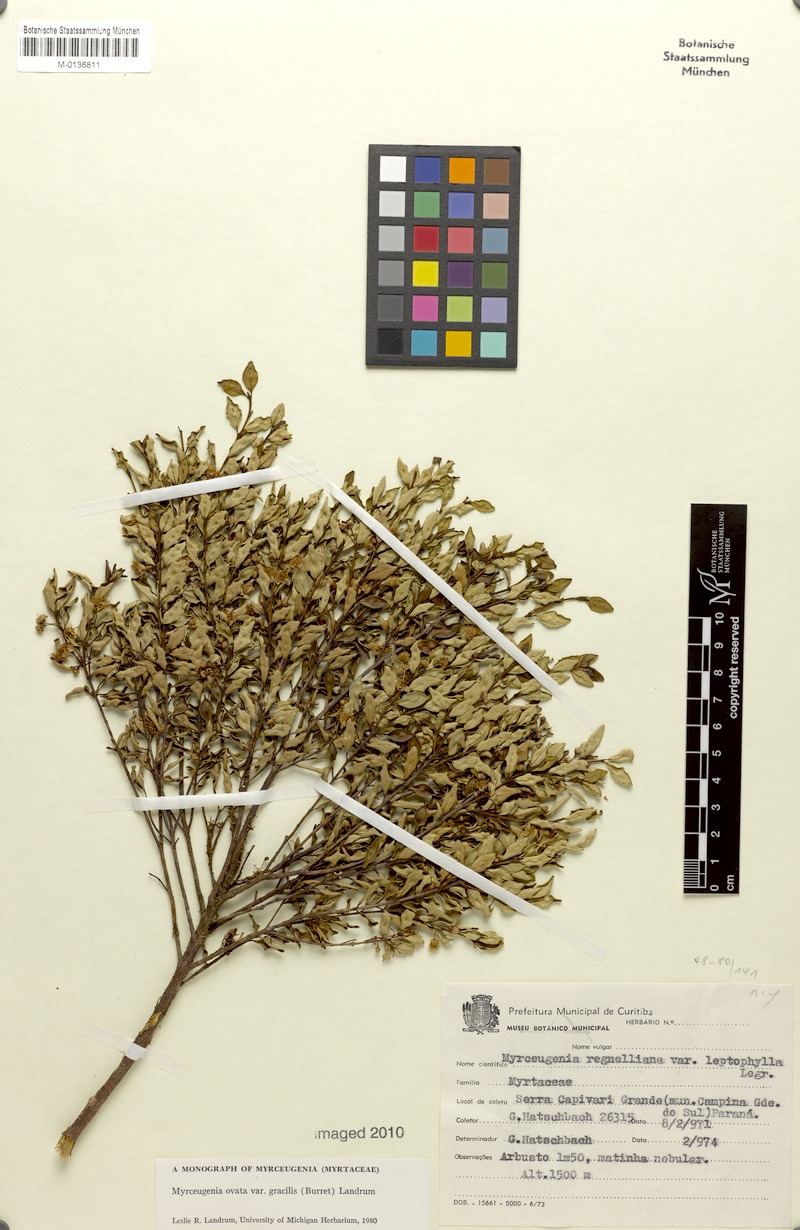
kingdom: Plantae
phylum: Tracheophyta
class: Magnoliopsida
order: Myrtales
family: Myrtaceae
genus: Myrceugenia
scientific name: Myrceugenia ovata
